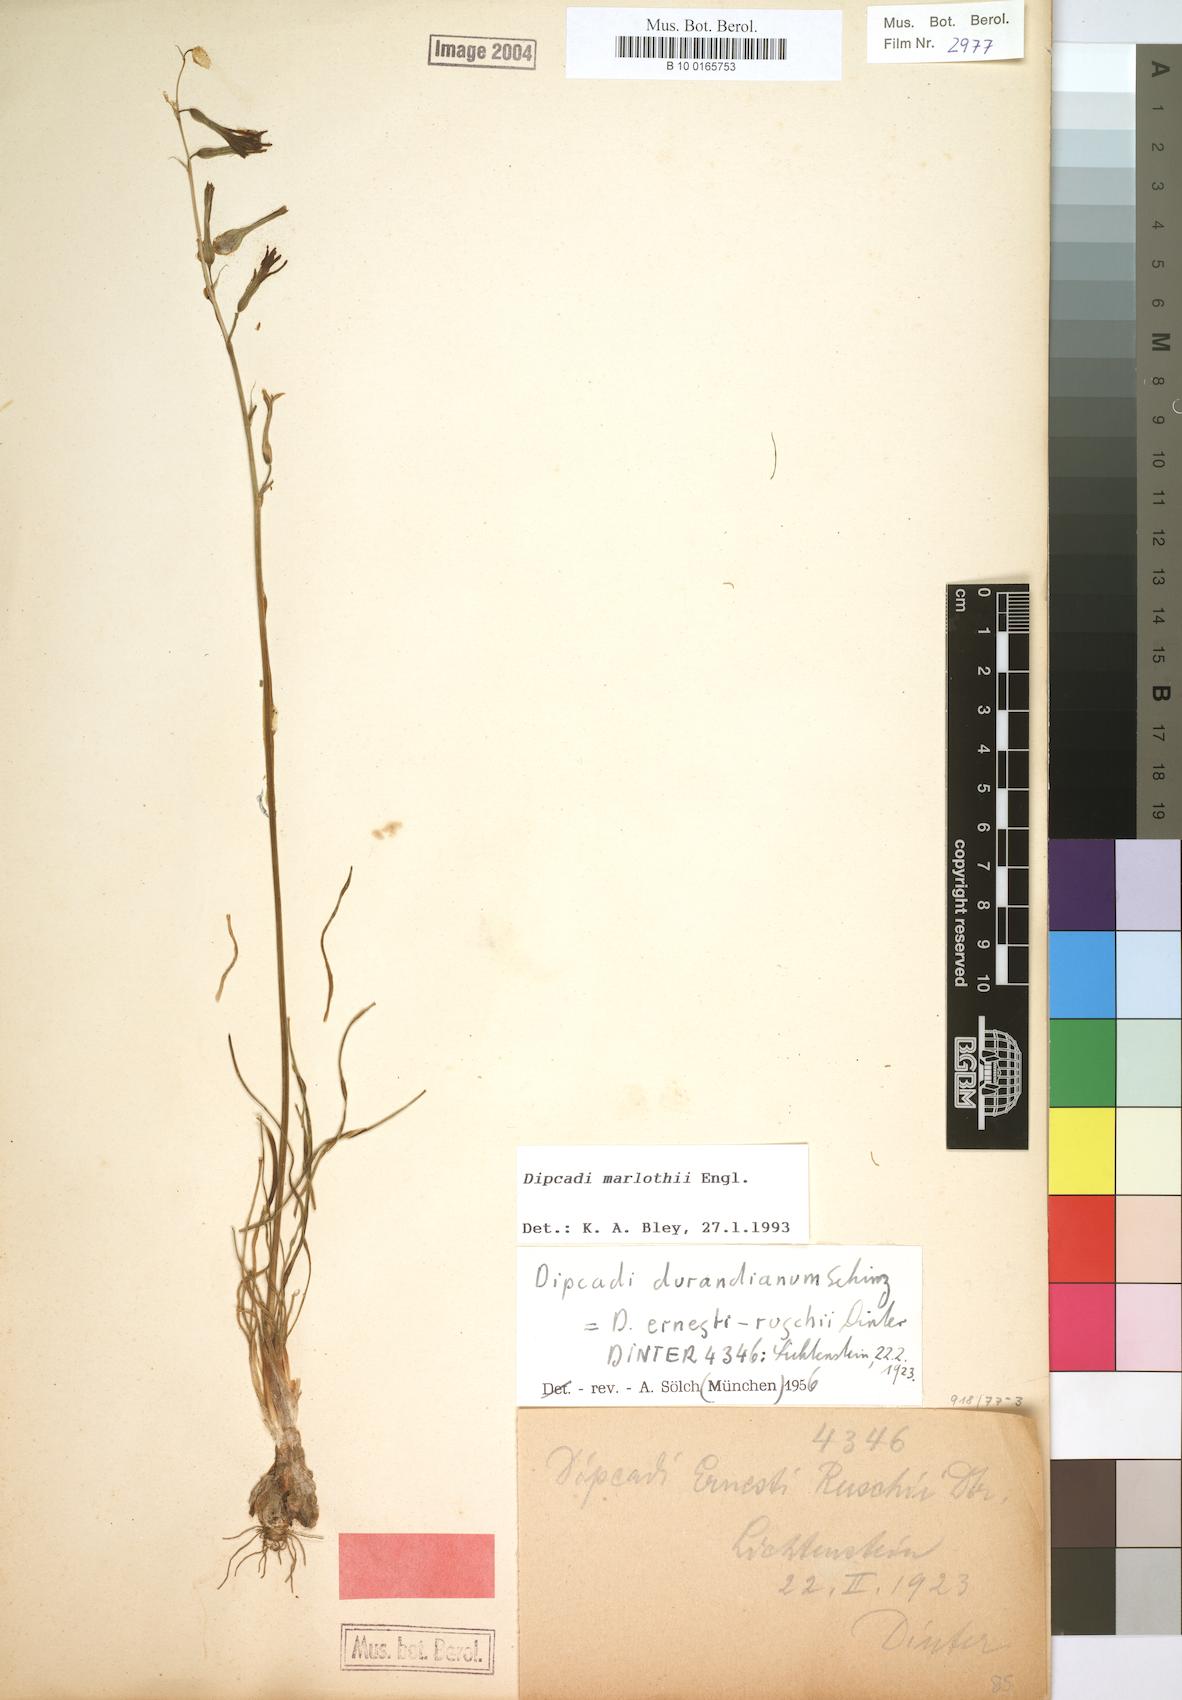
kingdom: Plantae
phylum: Tracheophyta
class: Liliopsida
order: Asparagales
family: Asparagaceae
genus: Dipcadi
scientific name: Dipcadi marlothii
